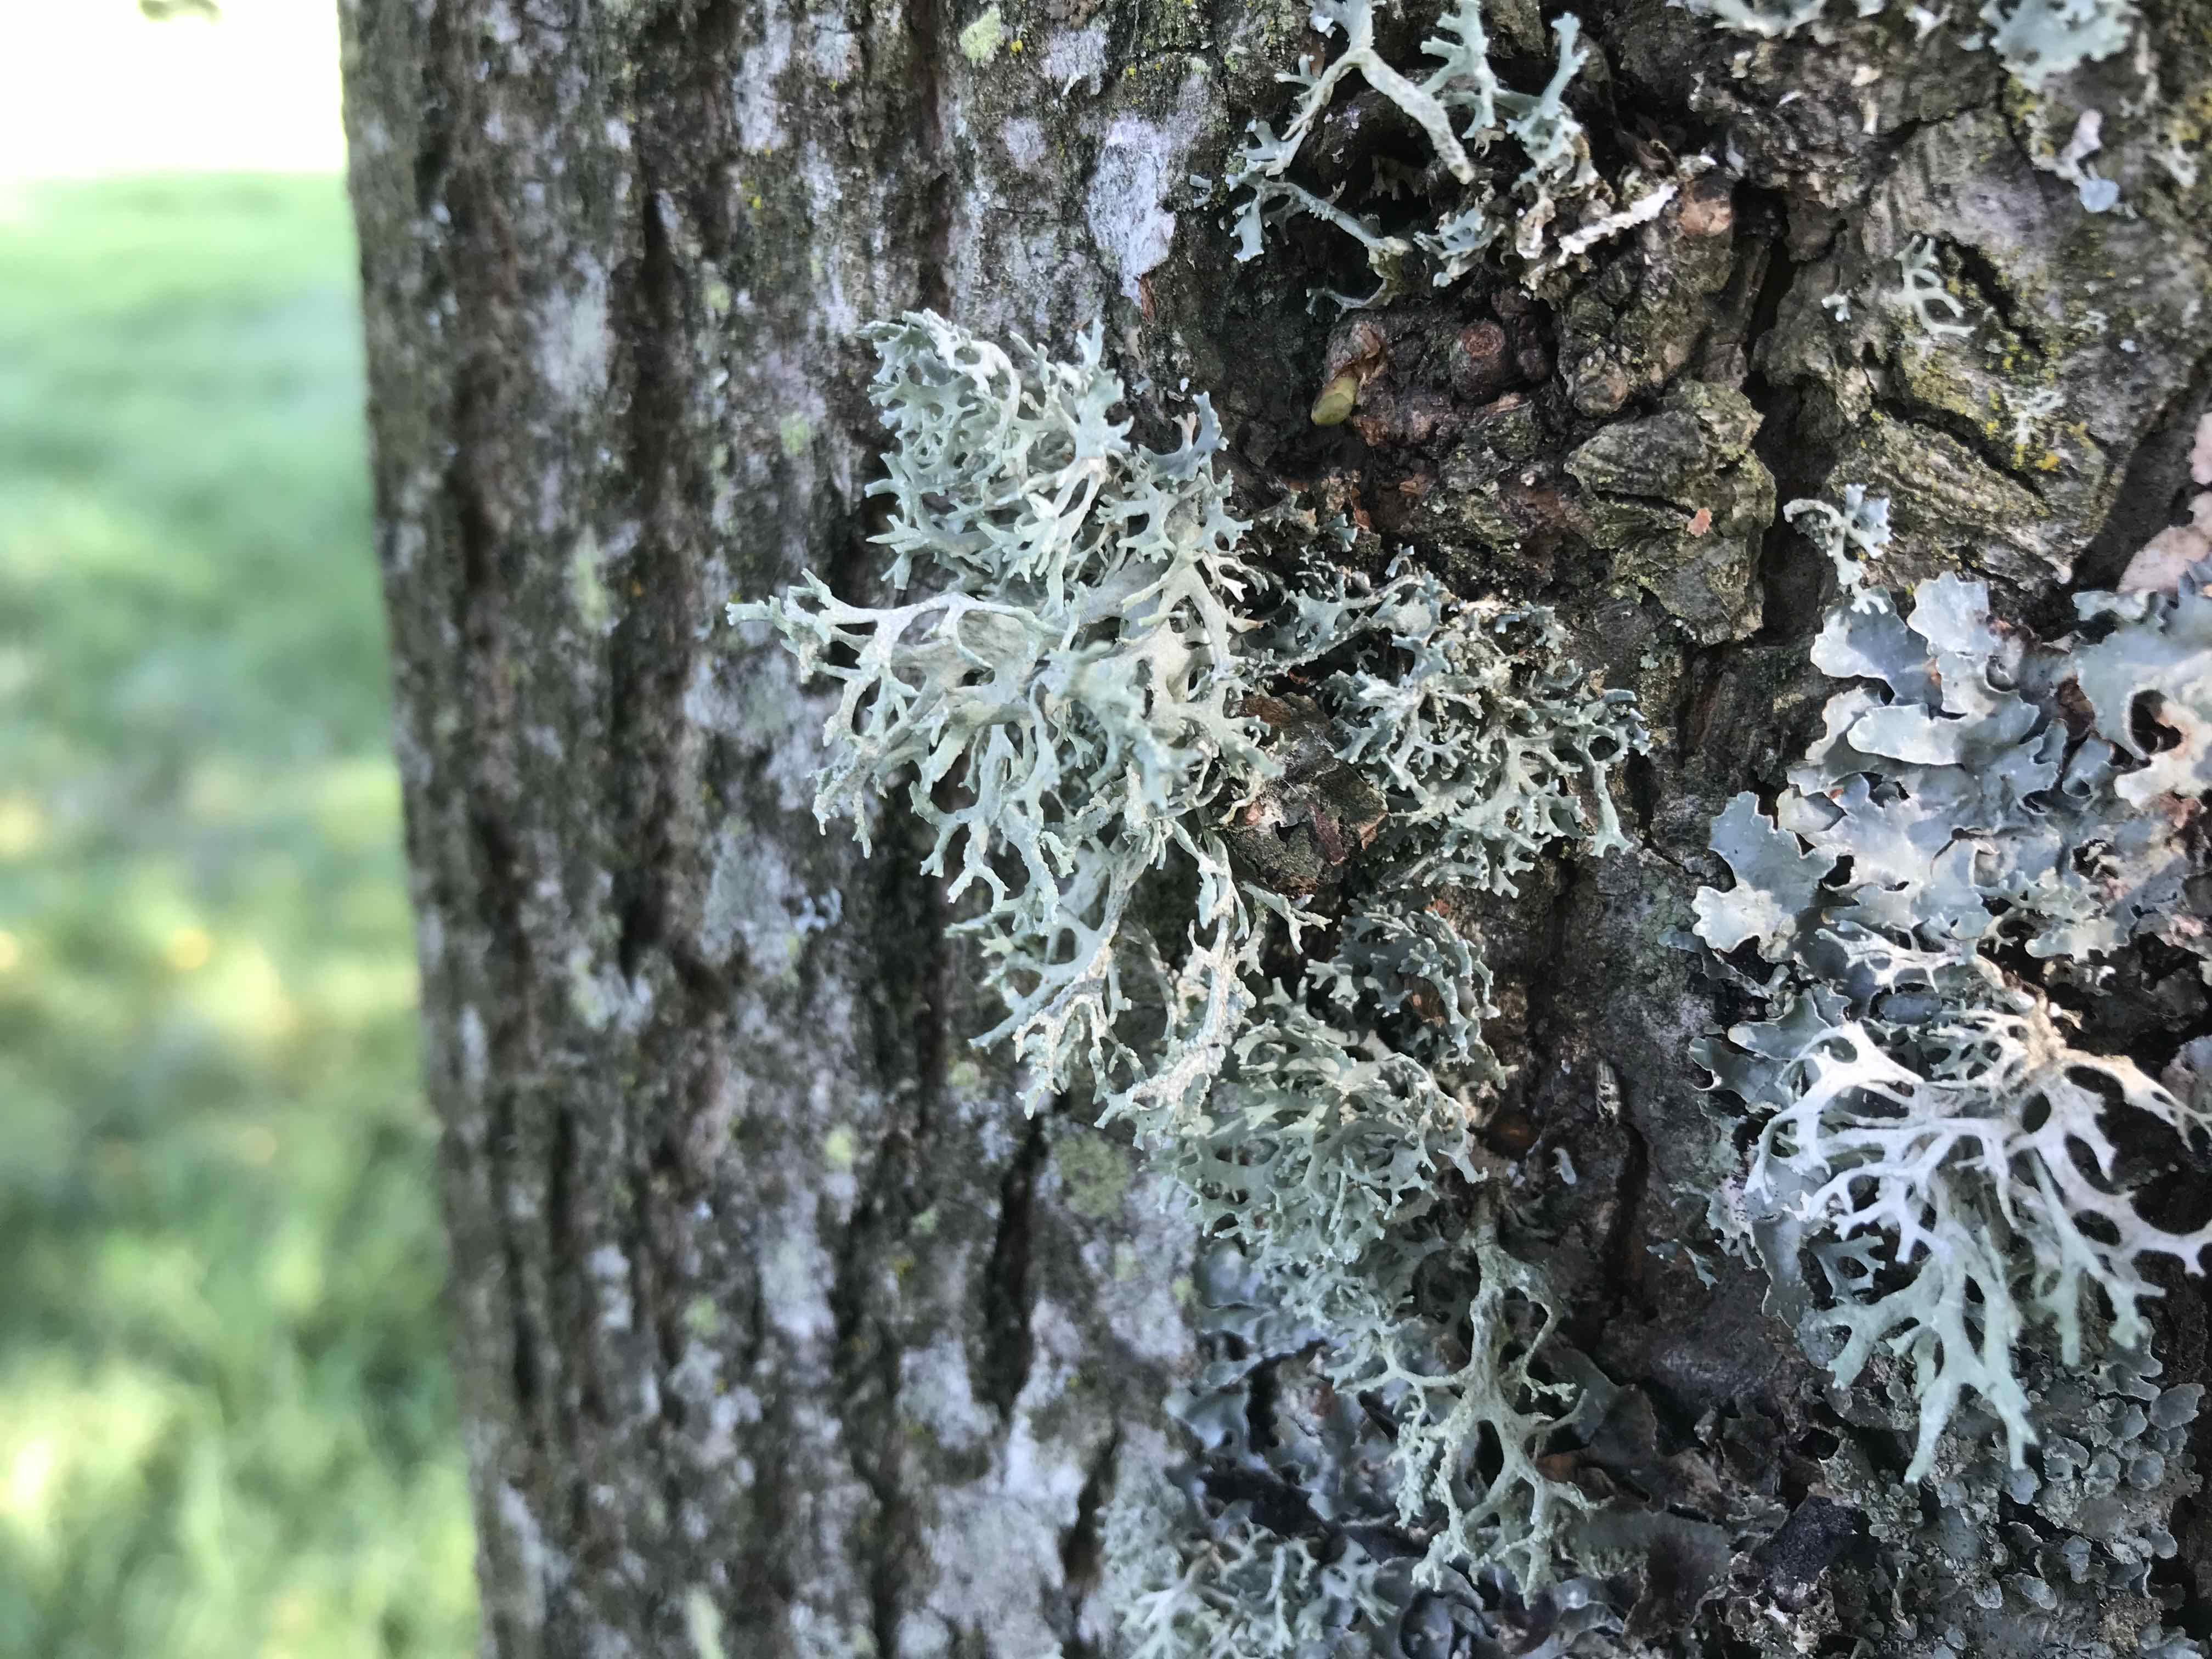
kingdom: Fungi
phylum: Ascomycota
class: Lecanoromycetes
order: Lecanorales
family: Parmeliaceae
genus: Evernia
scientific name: Evernia prunastri
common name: almindelig slåenlav
